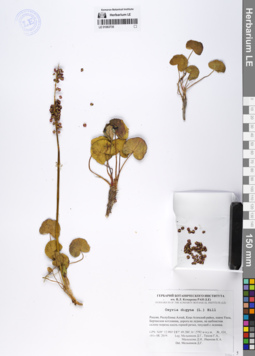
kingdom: Plantae
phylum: Tracheophyta
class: Magnoliopsida
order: Caryophyllales
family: Polygonaceae
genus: Oxyria
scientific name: Oxyria digyna
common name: Alpine mountain-sorrel
